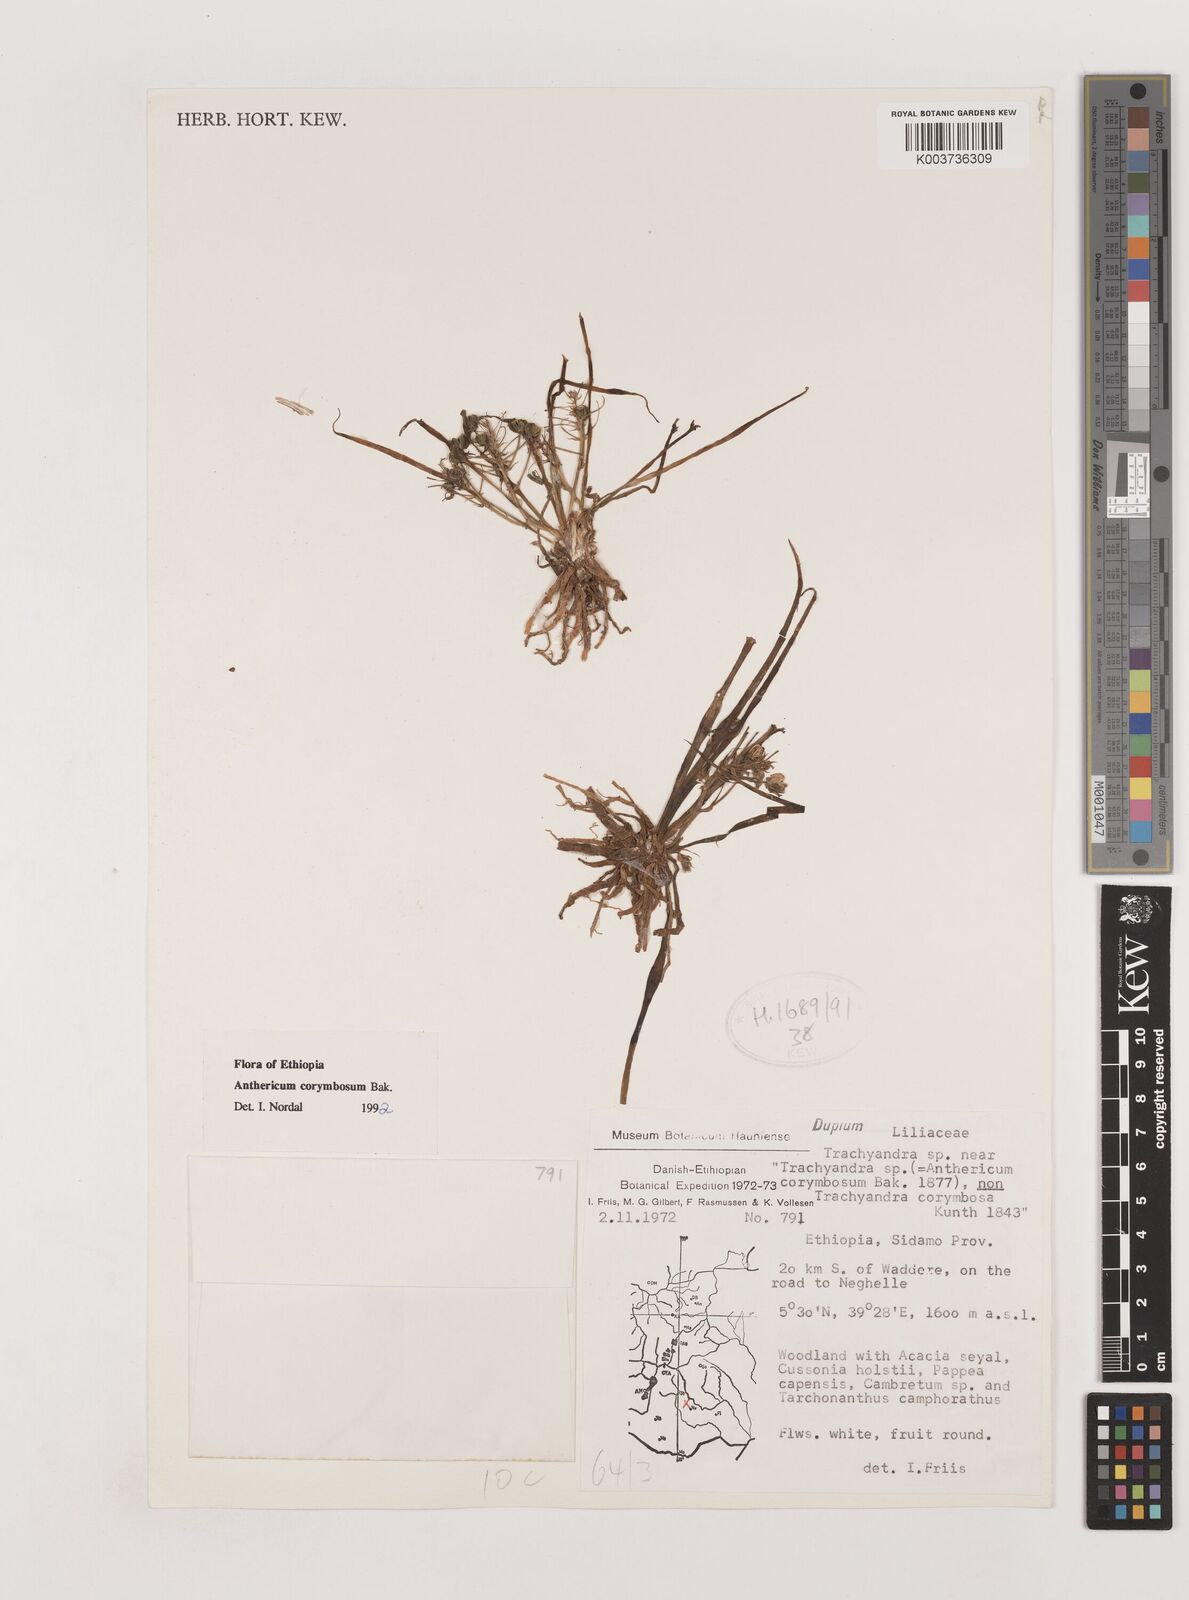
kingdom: Plantae
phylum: Tracheophyta
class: Liliopsida
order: Asparagales
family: Asparagaceae
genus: Anthericum
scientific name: Anthericum corymbosum
